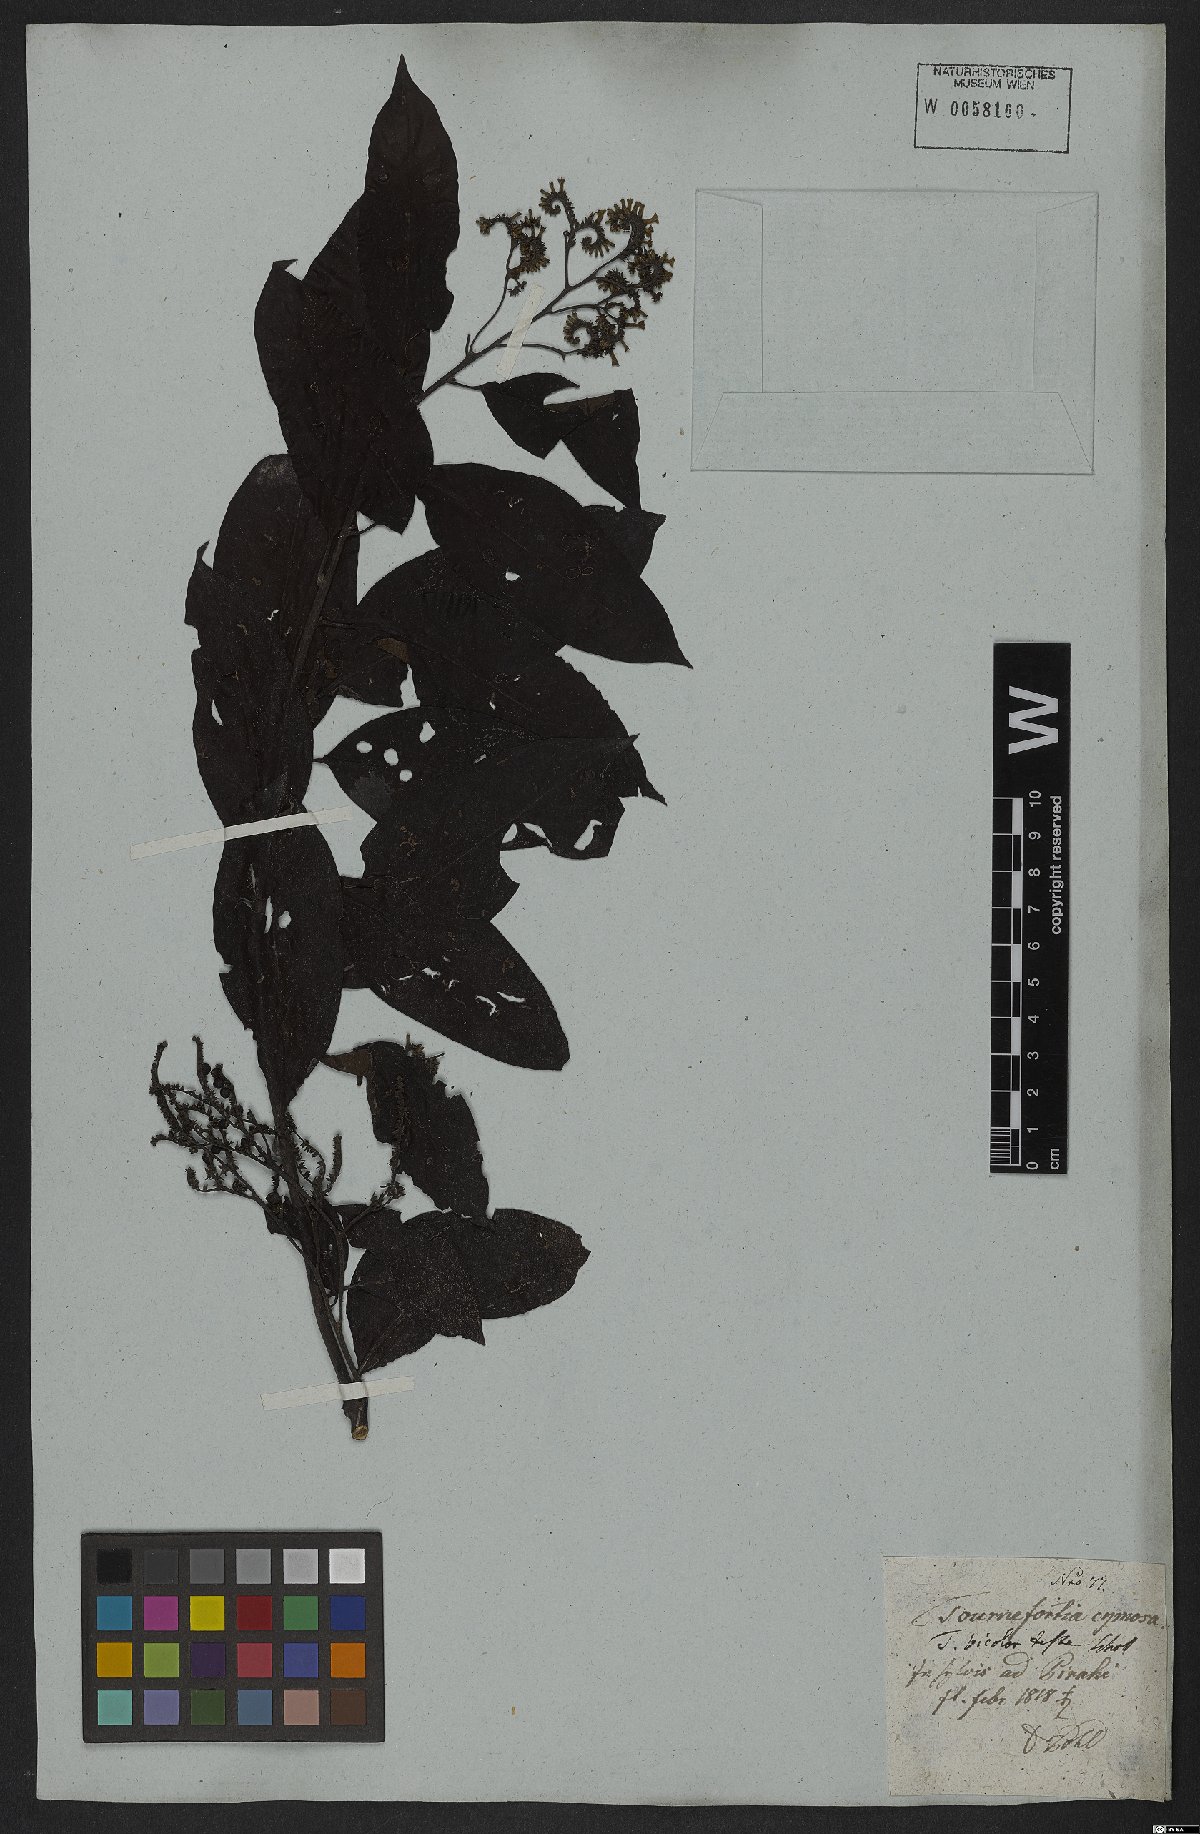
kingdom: Plantae
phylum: Tracheophyta
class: Magnoliopsida
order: Boraginales
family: Heliotropiaceae
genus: Heliotropium
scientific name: Heliotropium verdcourtii
